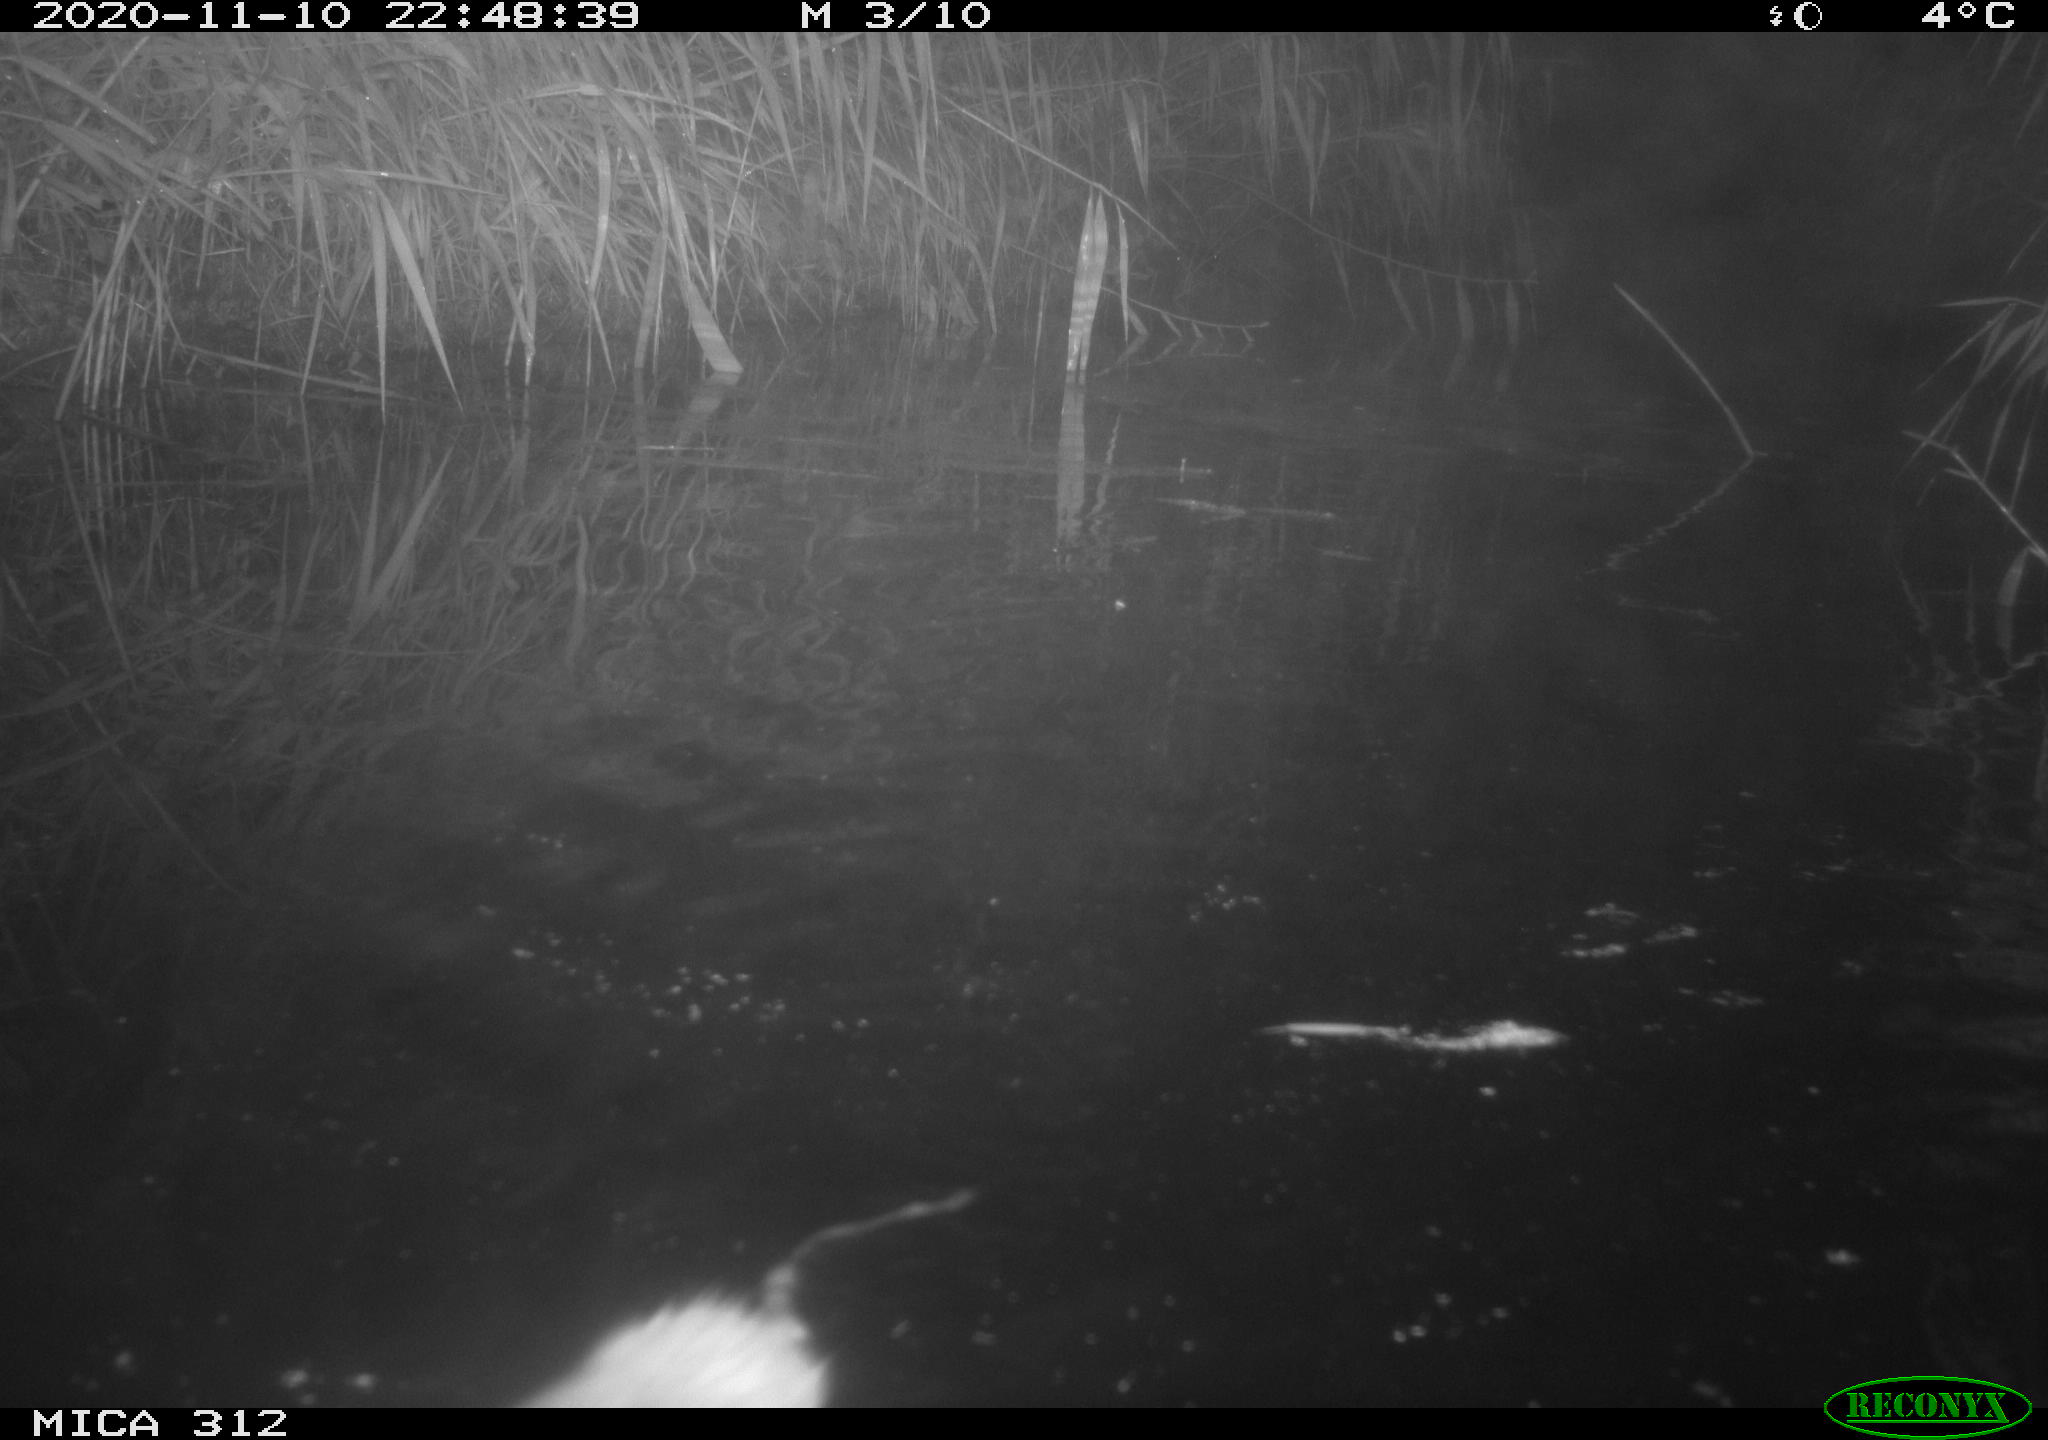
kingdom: Animalia
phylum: Chordata
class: Mammalia
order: Rodentia
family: Muridae
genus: Rattus
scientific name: Rattus norvegicus
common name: Brown rat
